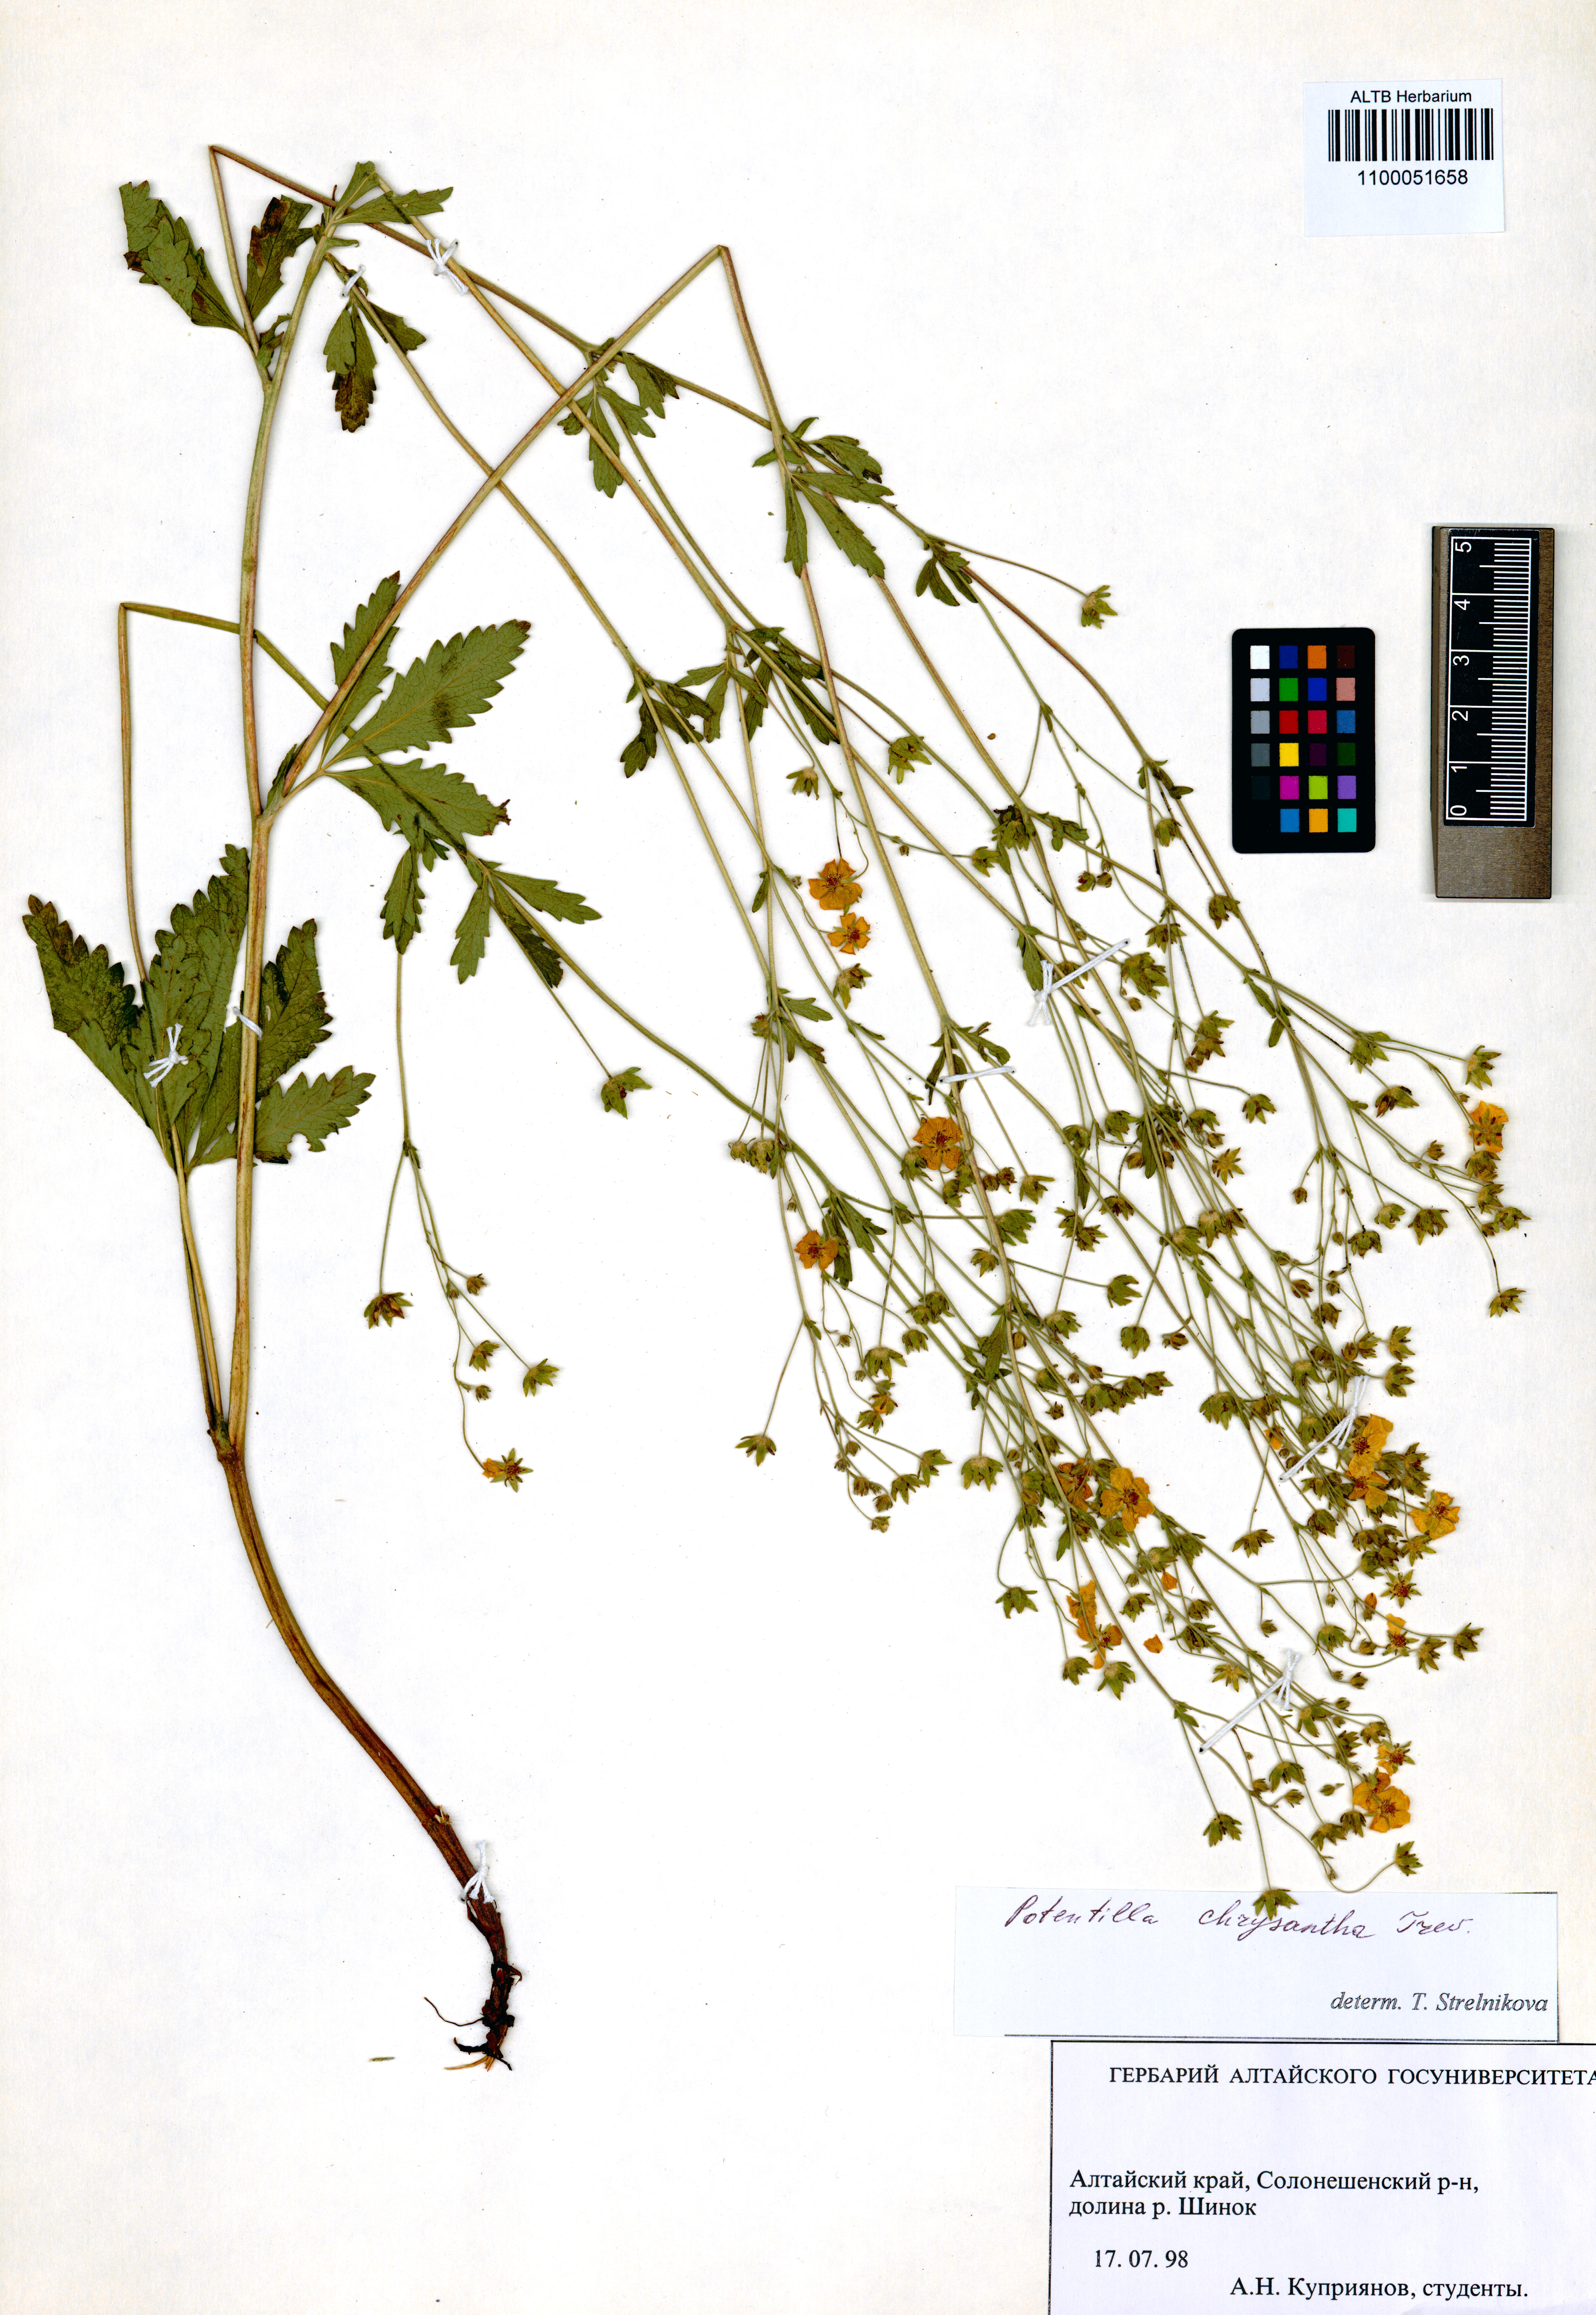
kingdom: Plantae
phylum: Tracheophyta
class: Magnoliopsida
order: Rosales
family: Rosaceae
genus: Potentilla
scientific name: Potentilla chrysantha
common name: Thuringian cinquefoil
